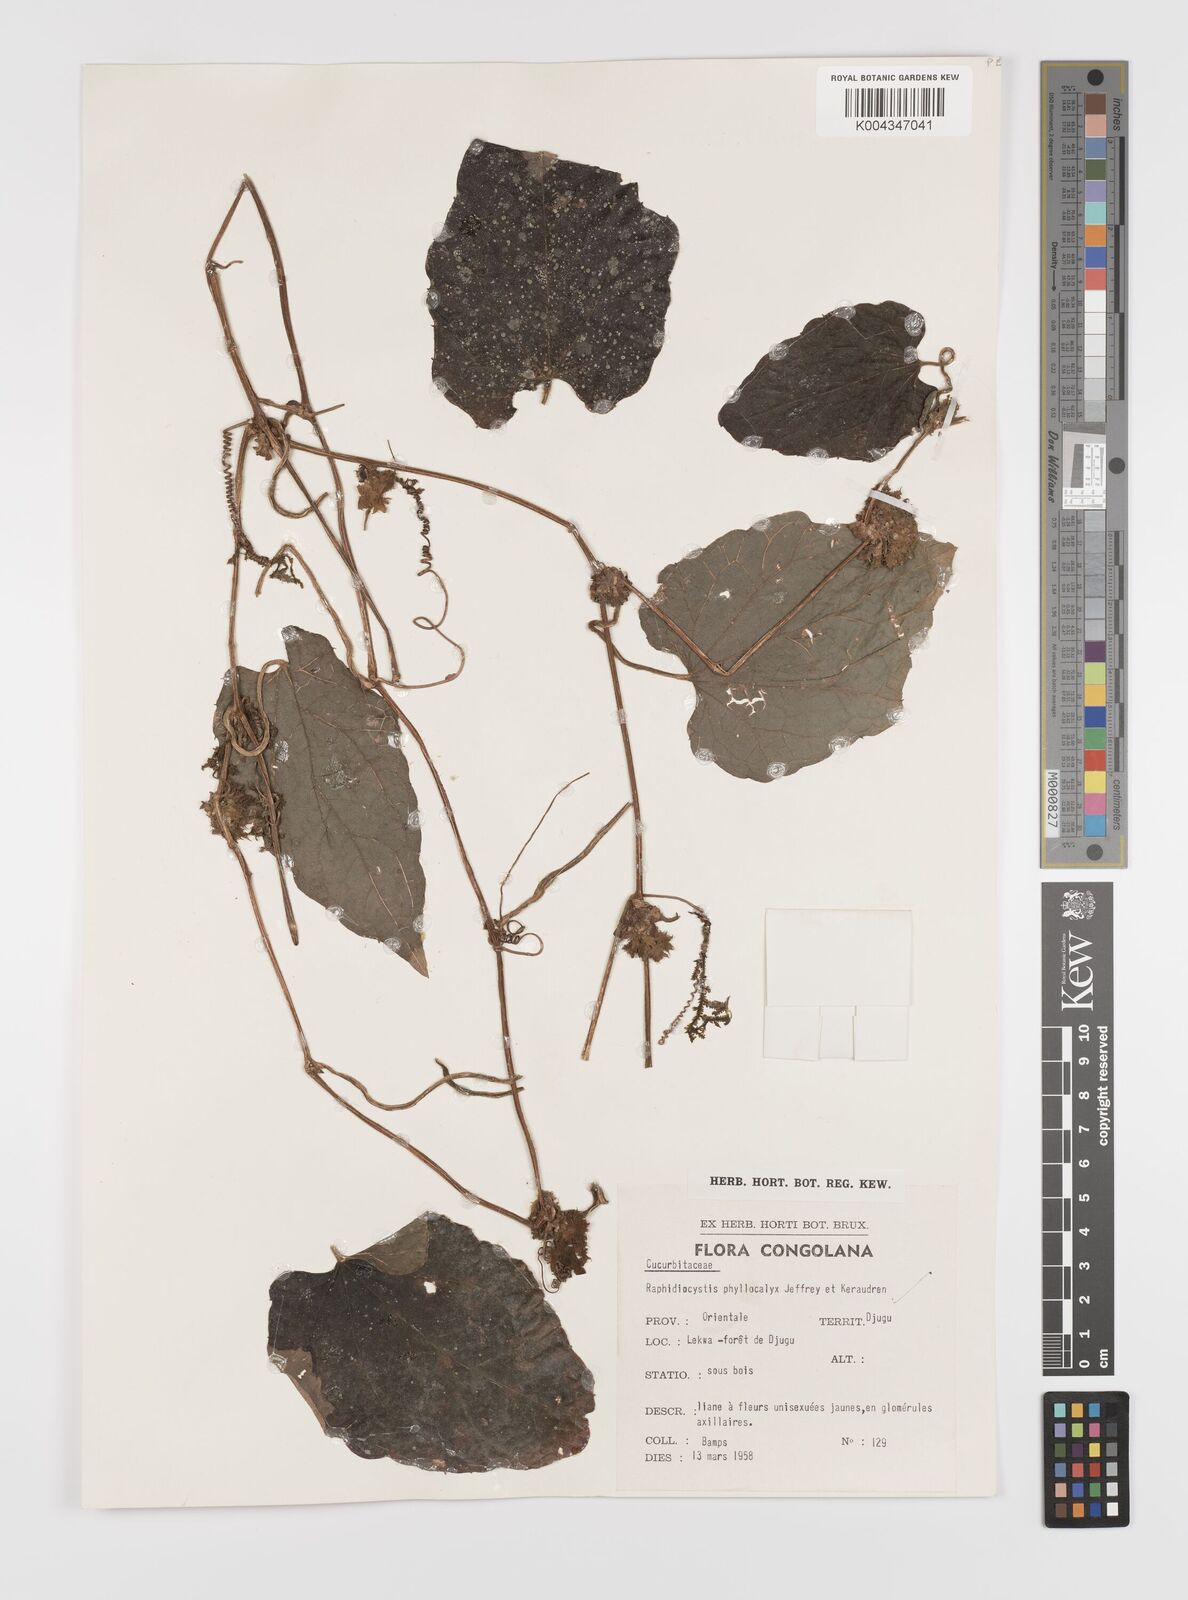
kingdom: Plantae
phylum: Tracheophyta
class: Magnoliopsida
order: Cucurbitales
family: Cucurbitaceae
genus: Raphidiocystis
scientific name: Raphidiocystis phyllocalyx
